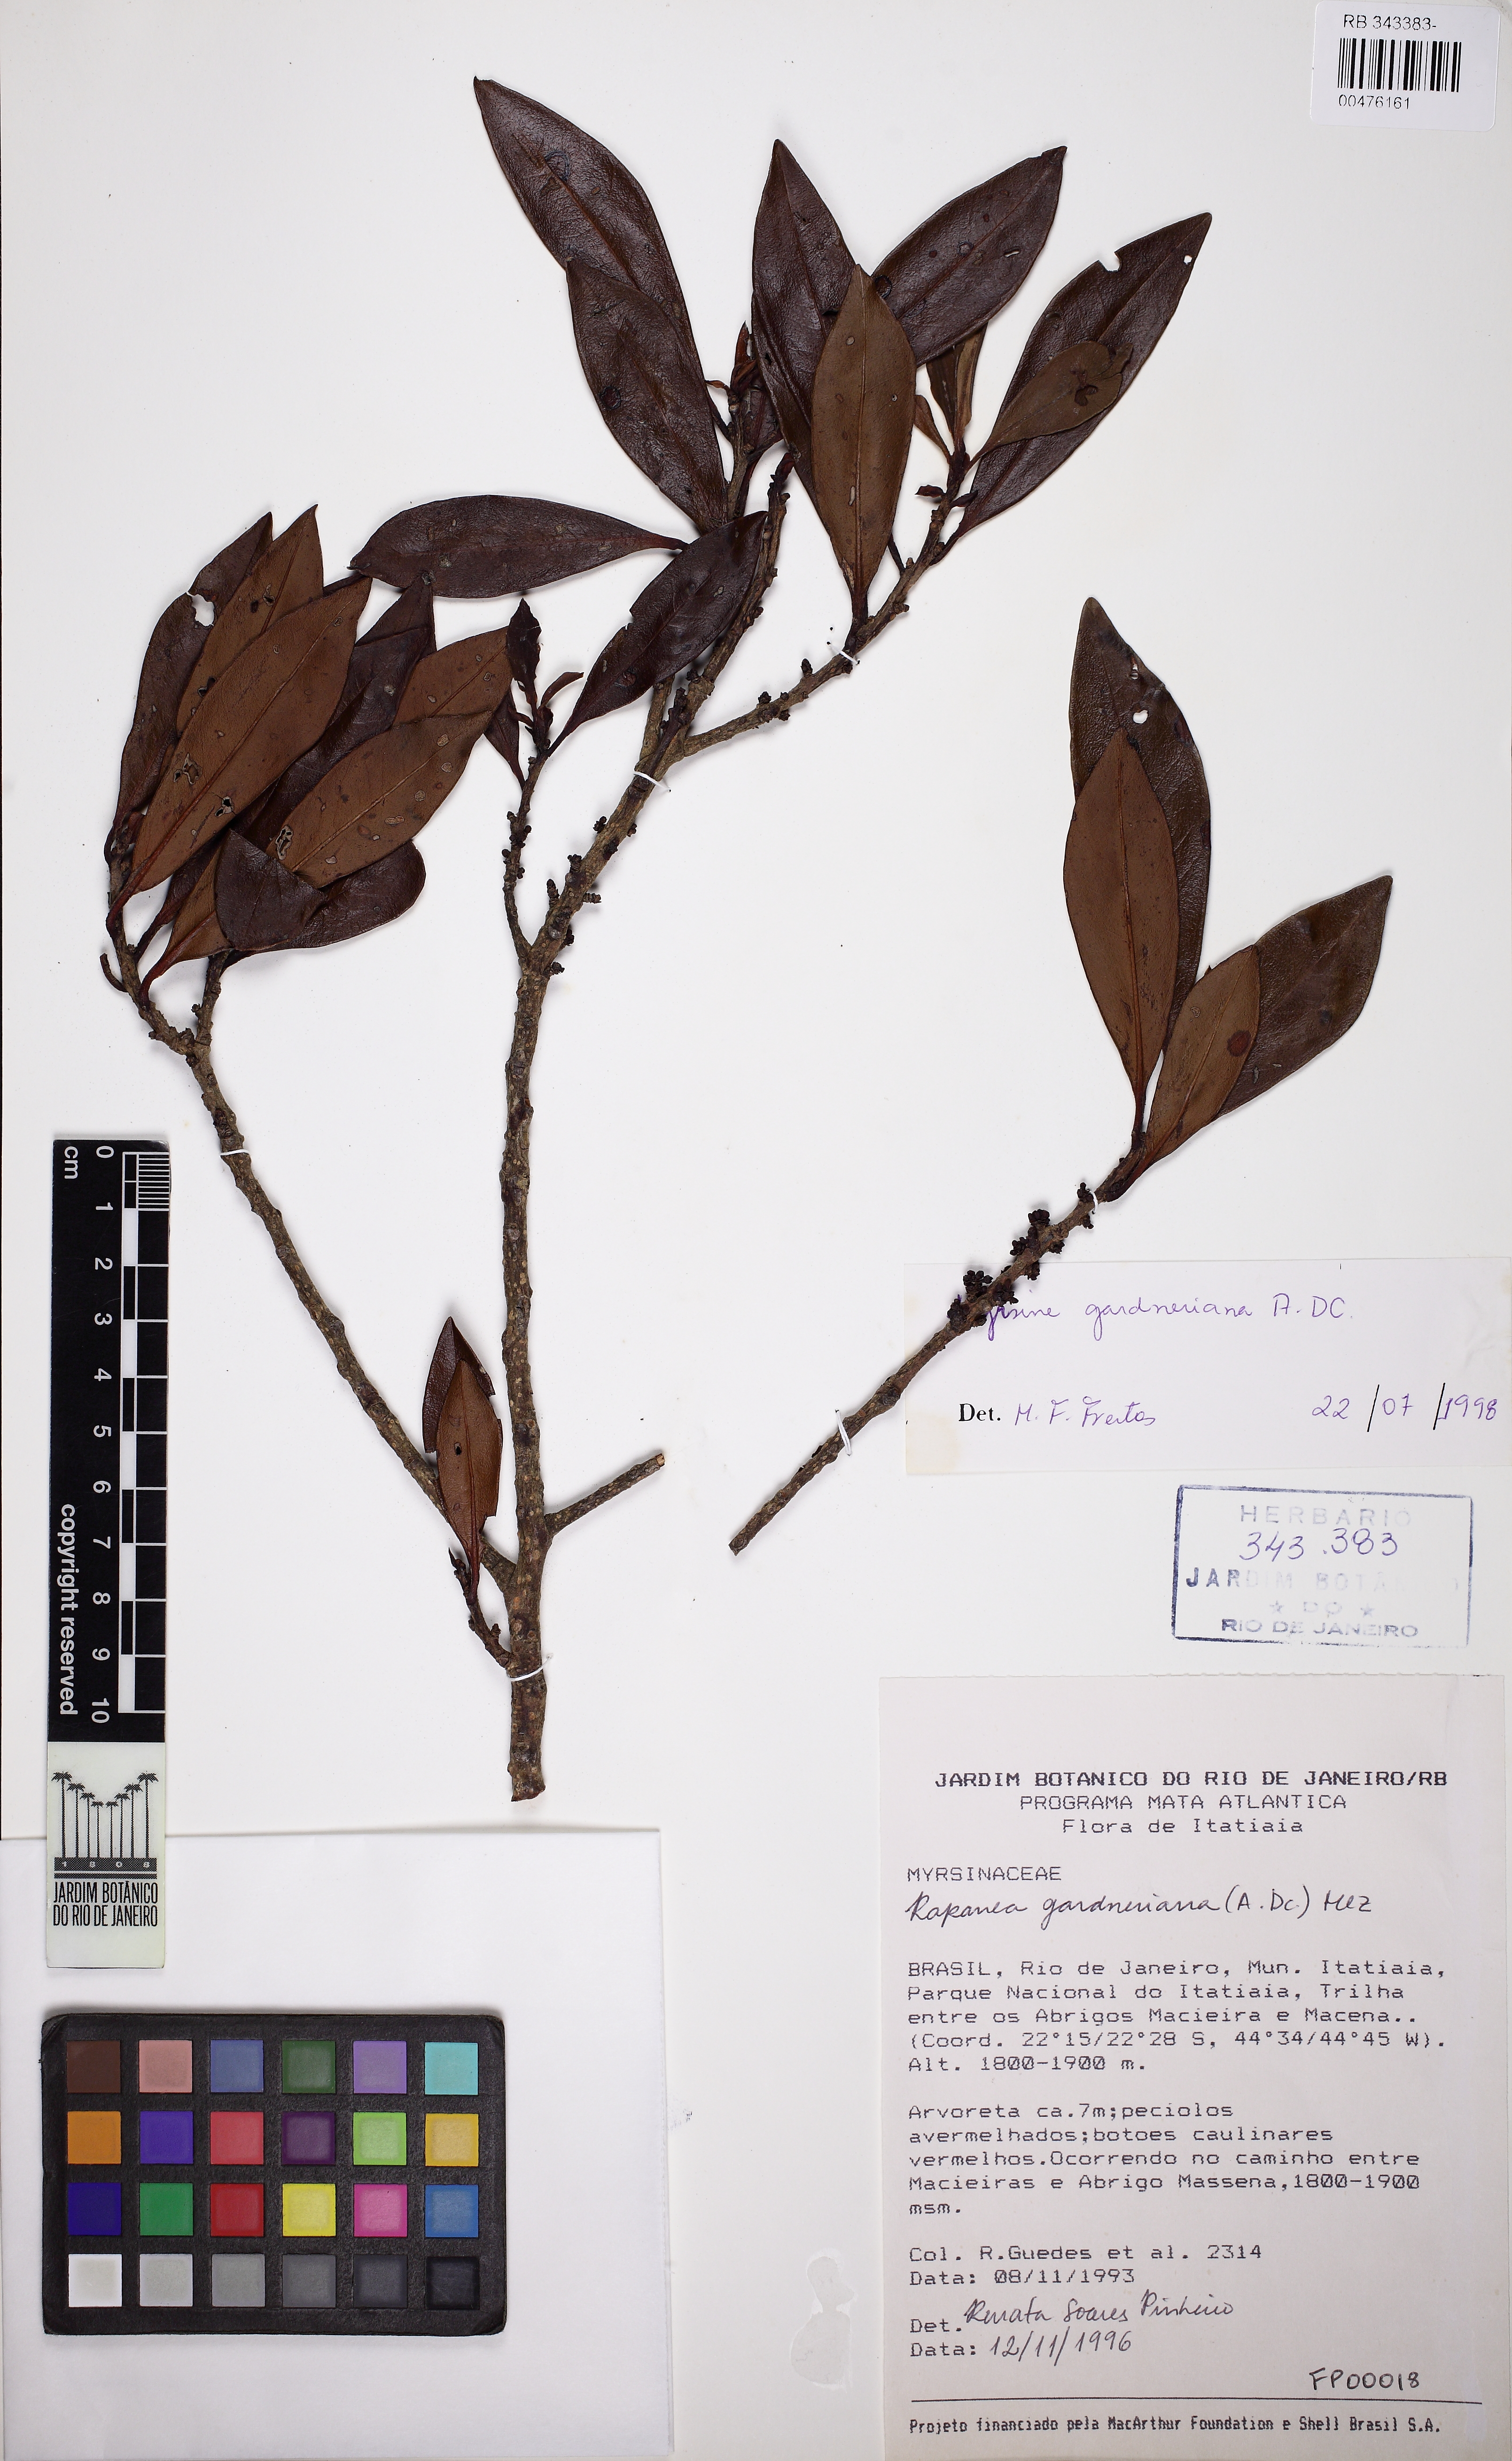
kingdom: Plantae
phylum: Tracheophyta
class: Magnoliopsida
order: Ericales
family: Primulaceae
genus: Myrsine
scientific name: Myrsine gardneriana
